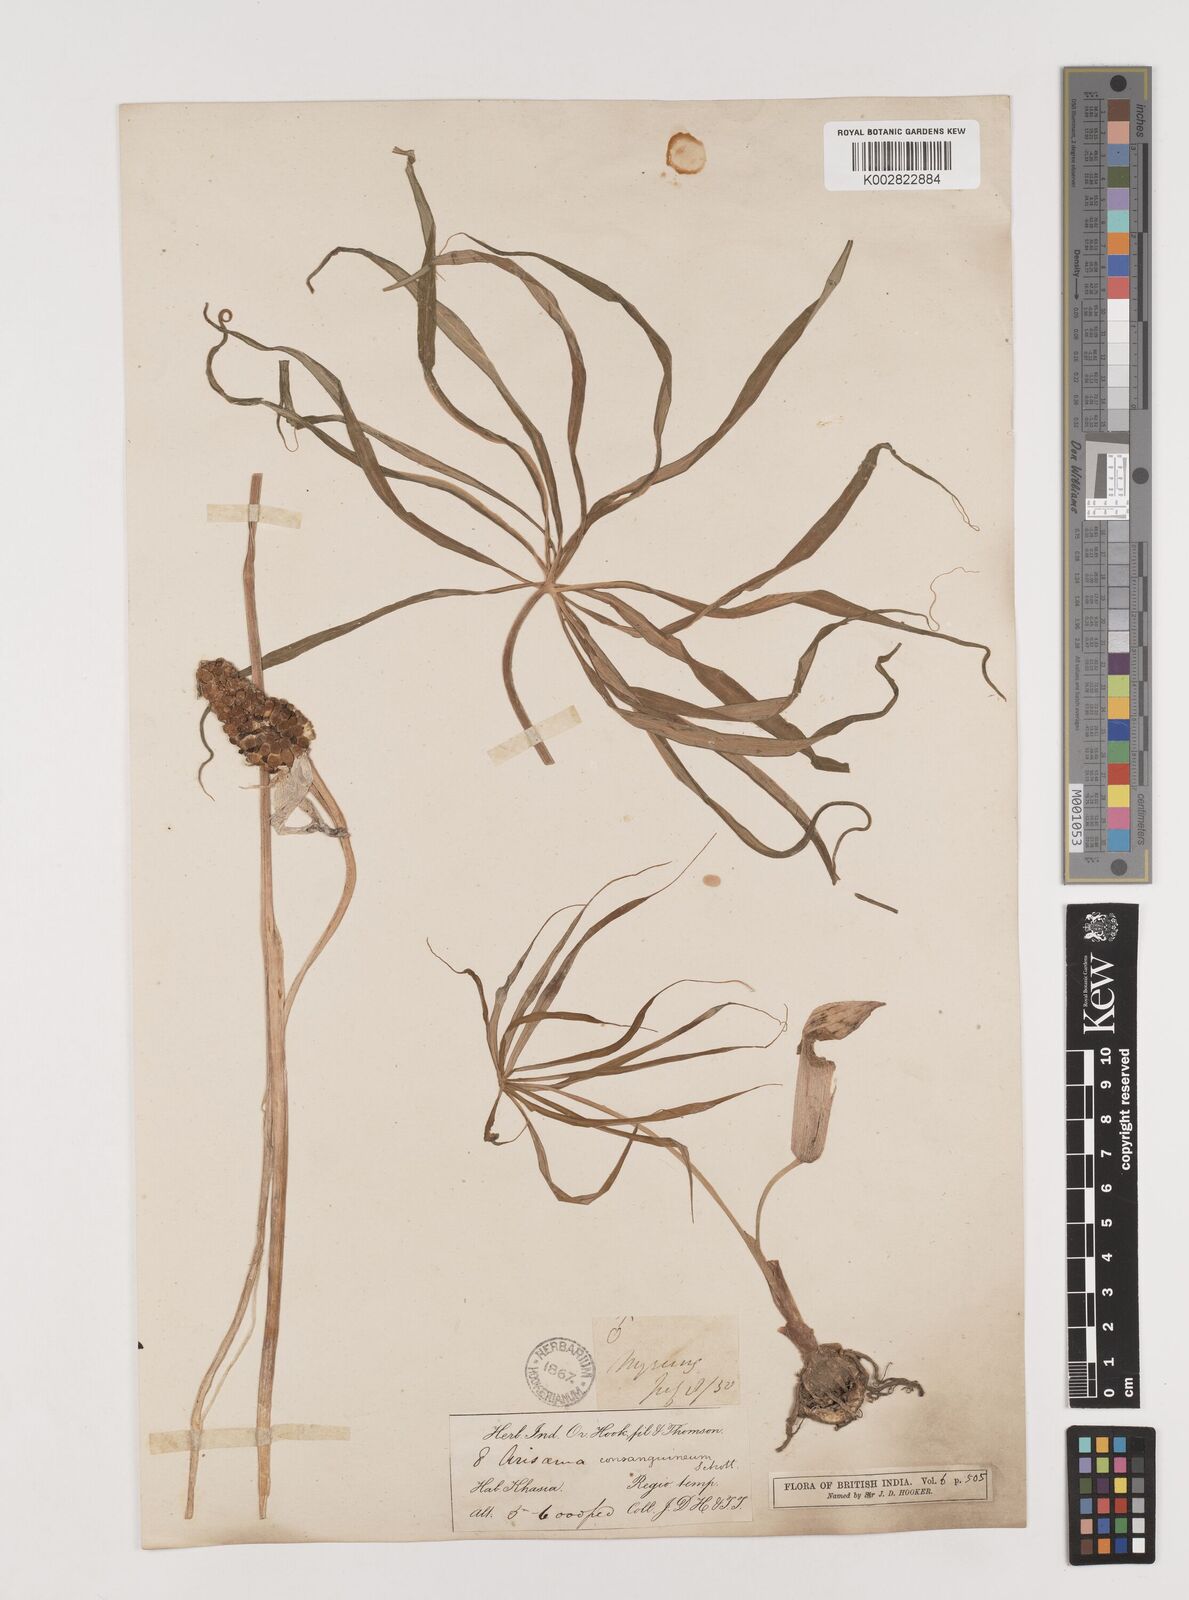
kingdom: Plantae
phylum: Tracheophyta
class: Liliopsida
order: Alismatales
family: Araceae
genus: Arisaema
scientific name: Arisaema erubescens
